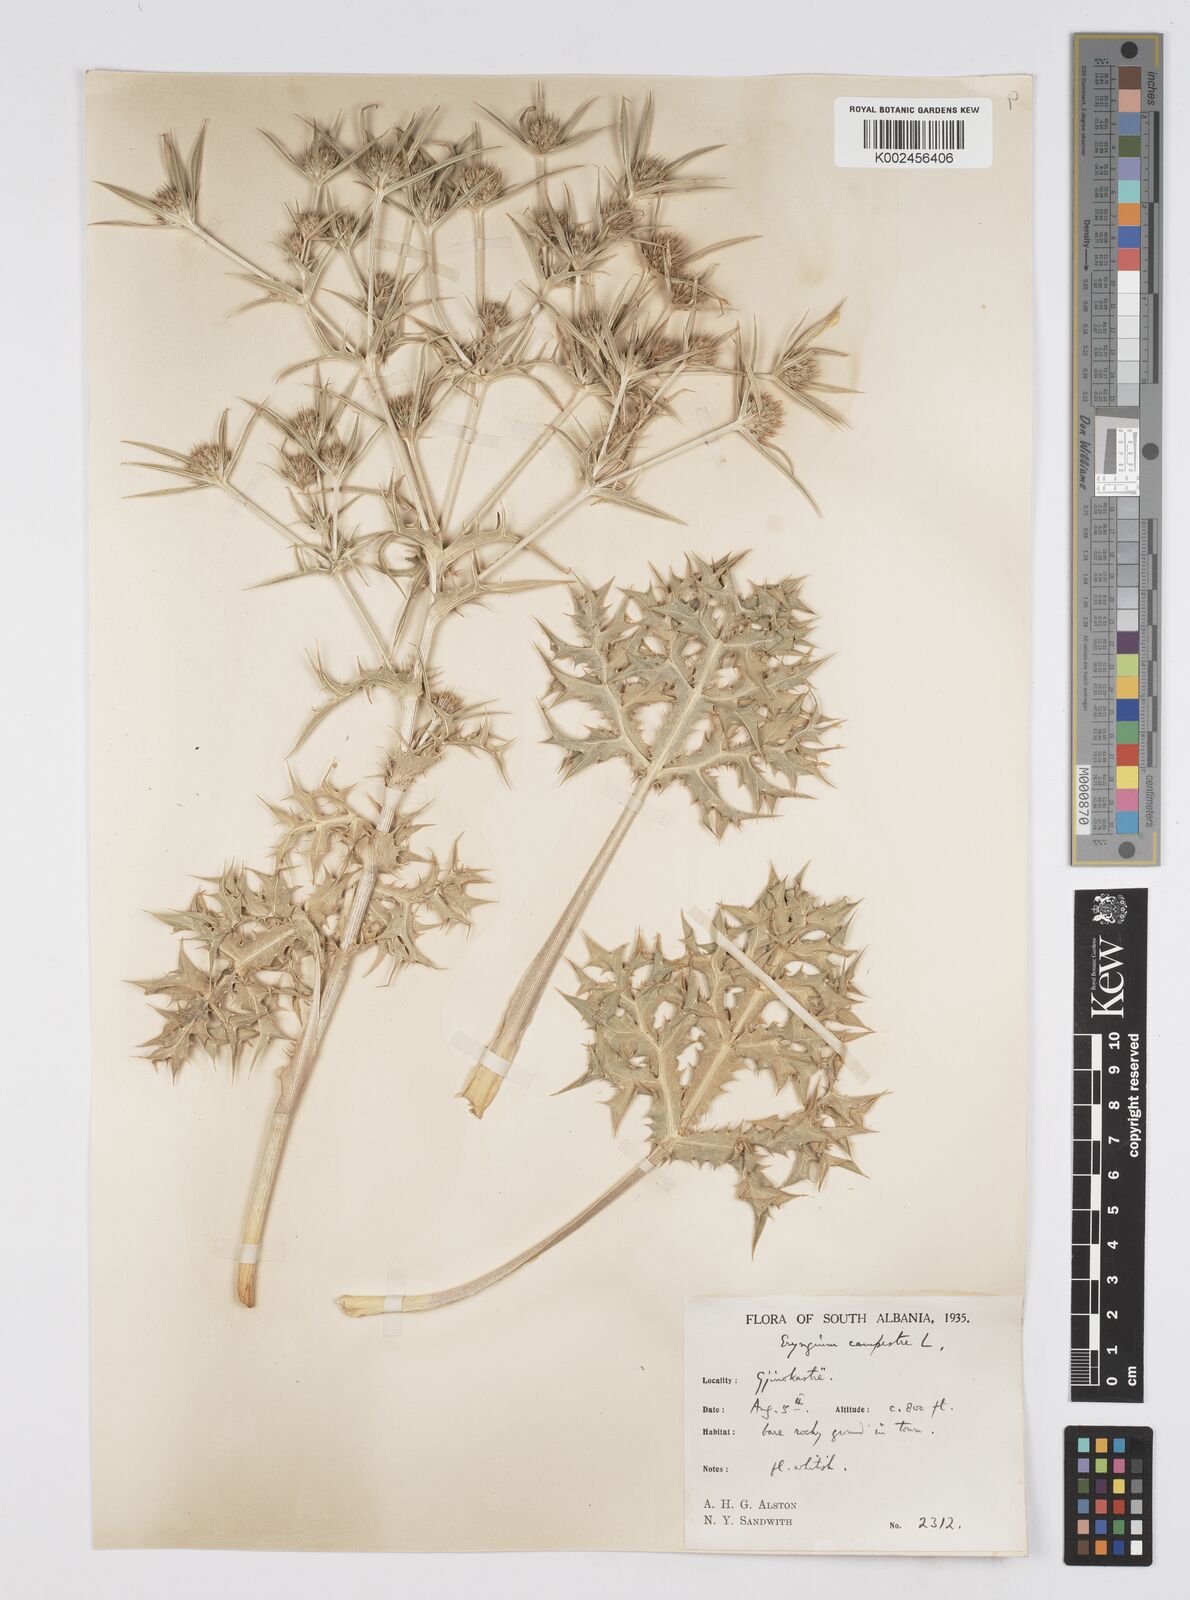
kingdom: Plantae
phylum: Tracheophyta
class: Magnoliopsida
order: Apiales
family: Apiaceae
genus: Eryngium
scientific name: Eryngium campestre
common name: Field eryngo
